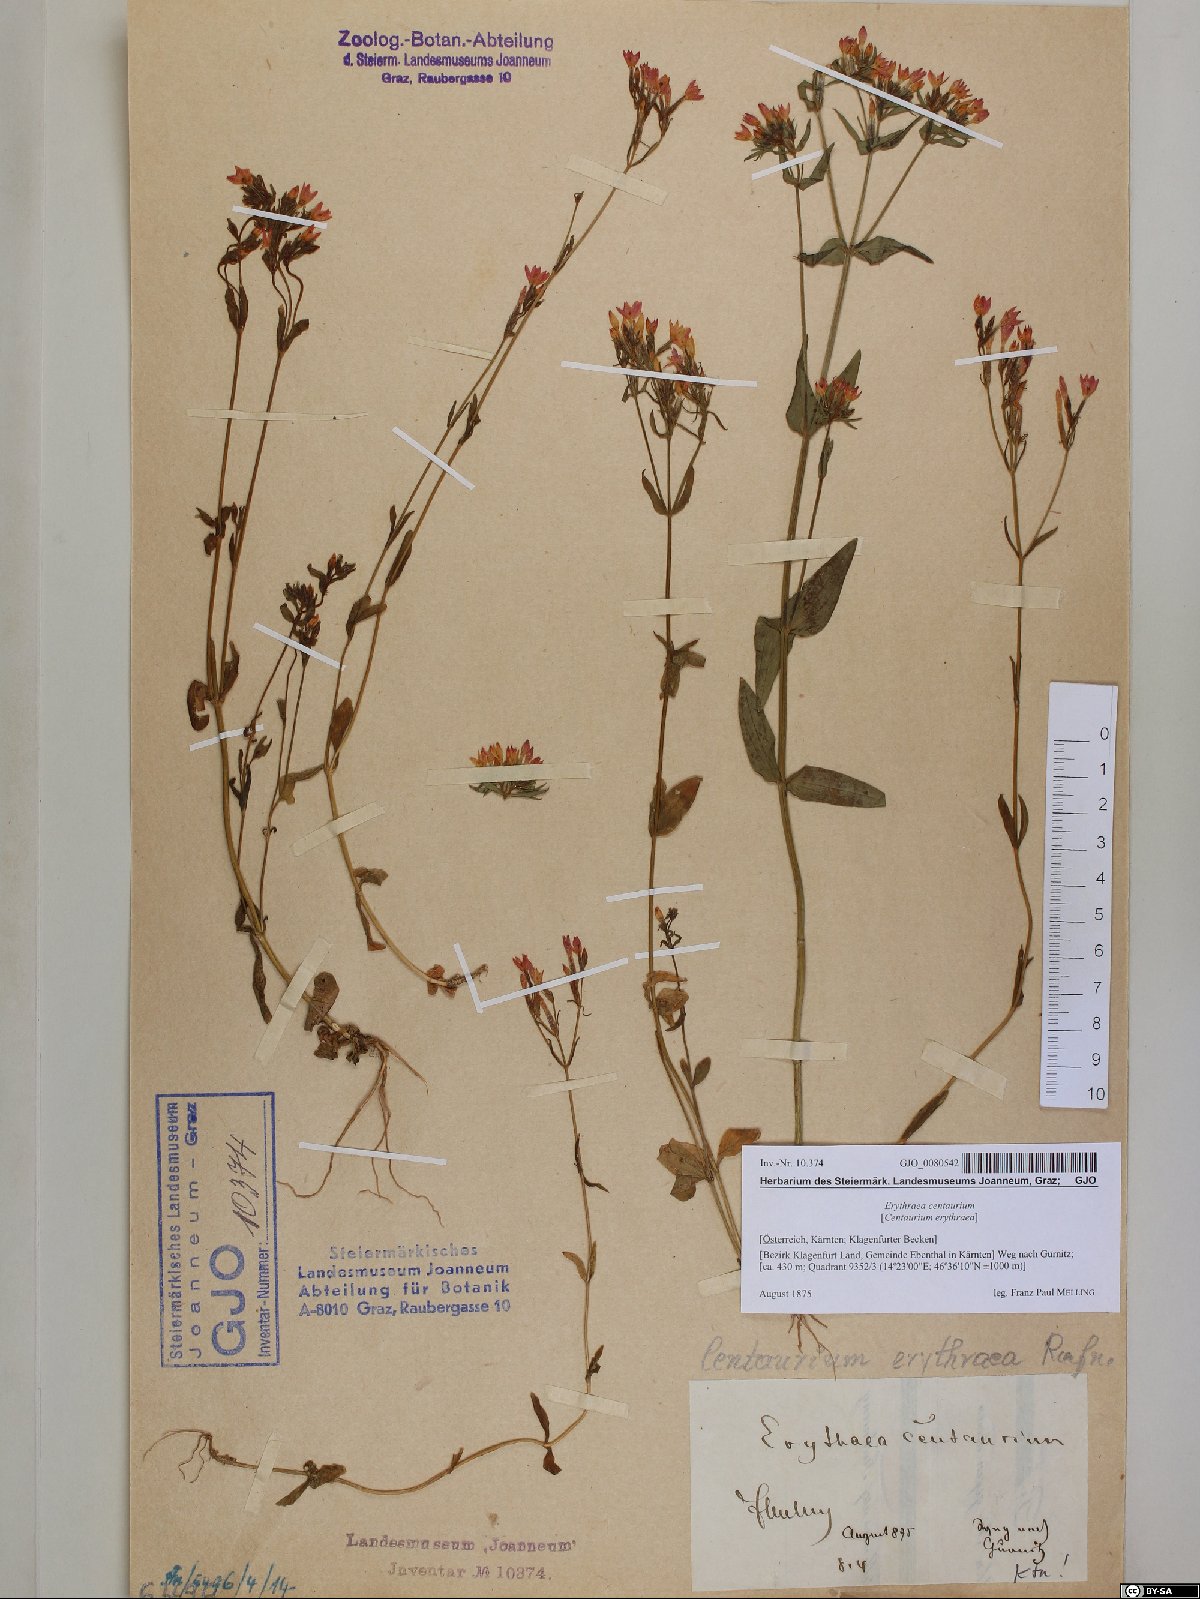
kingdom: Plantae
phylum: Tracheophyta
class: Magnoliopsida
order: Gentianales
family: Gentianaceae
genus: Centaurium
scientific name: Centaurium erythraea
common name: Common centaury
